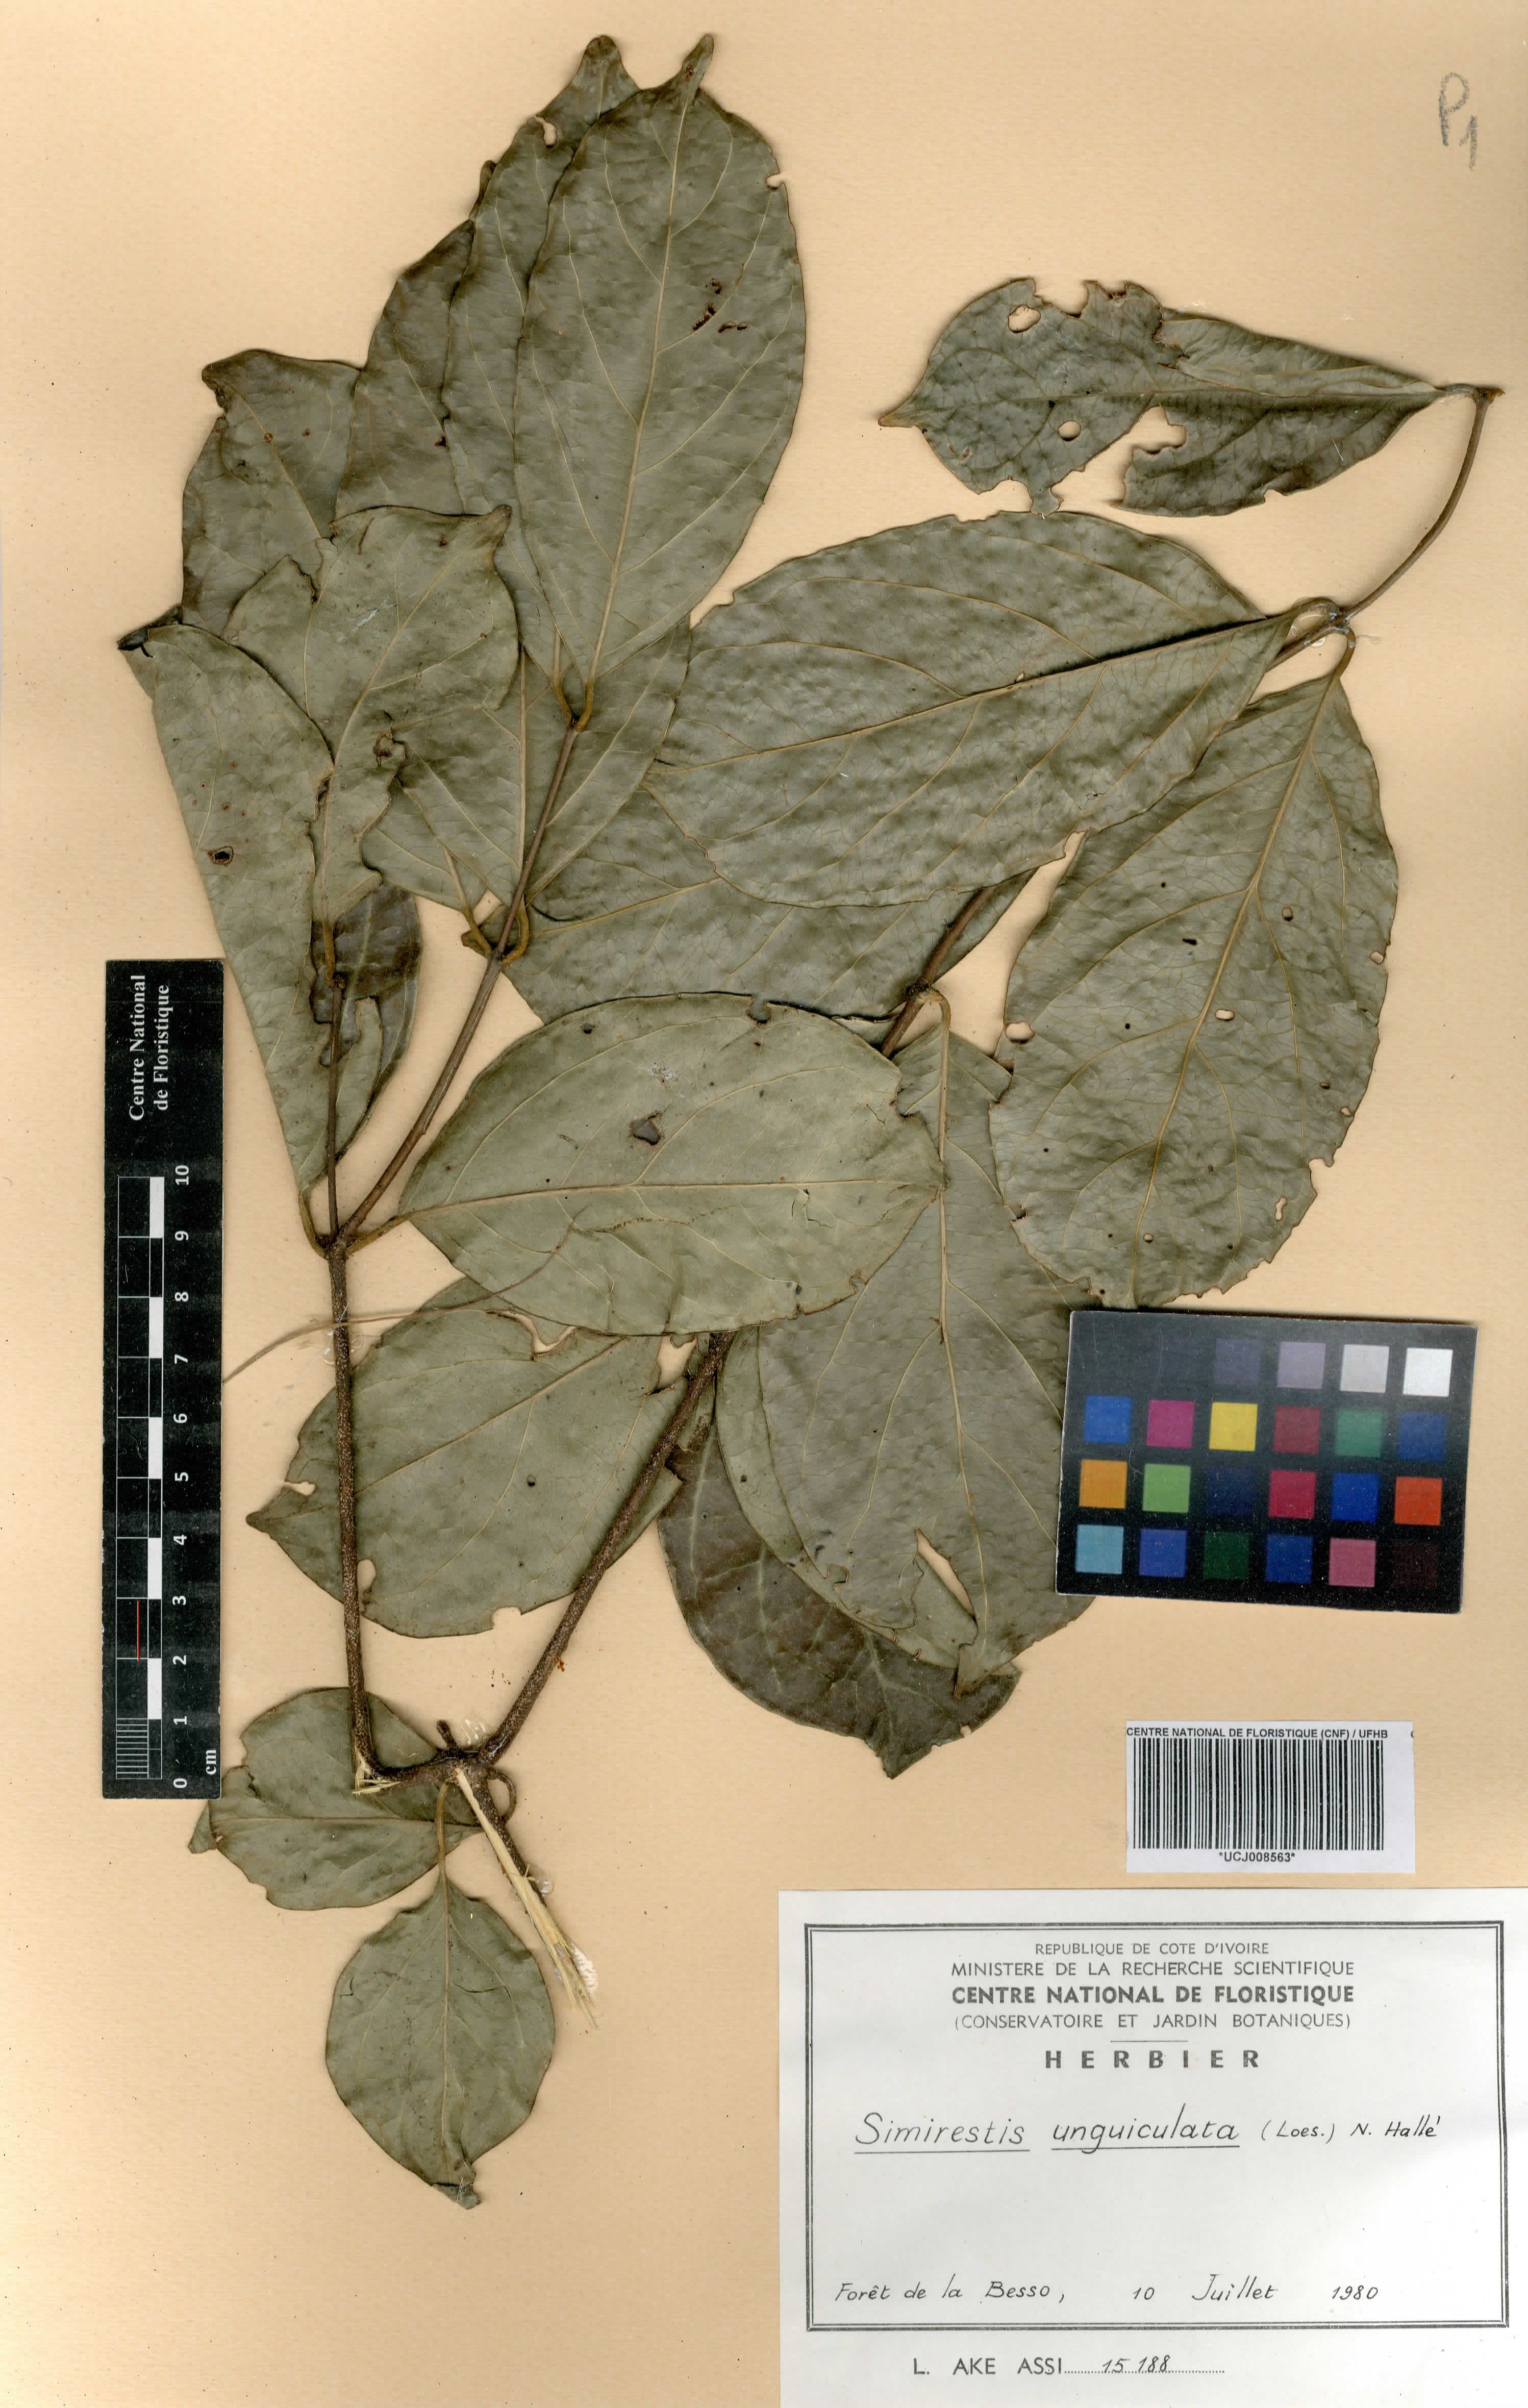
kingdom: Plantae
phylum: Tracheophyta
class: Magnoliopsida
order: Celastrales
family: Celastraceae
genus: Pristimera
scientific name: Pristimera unguiculata
